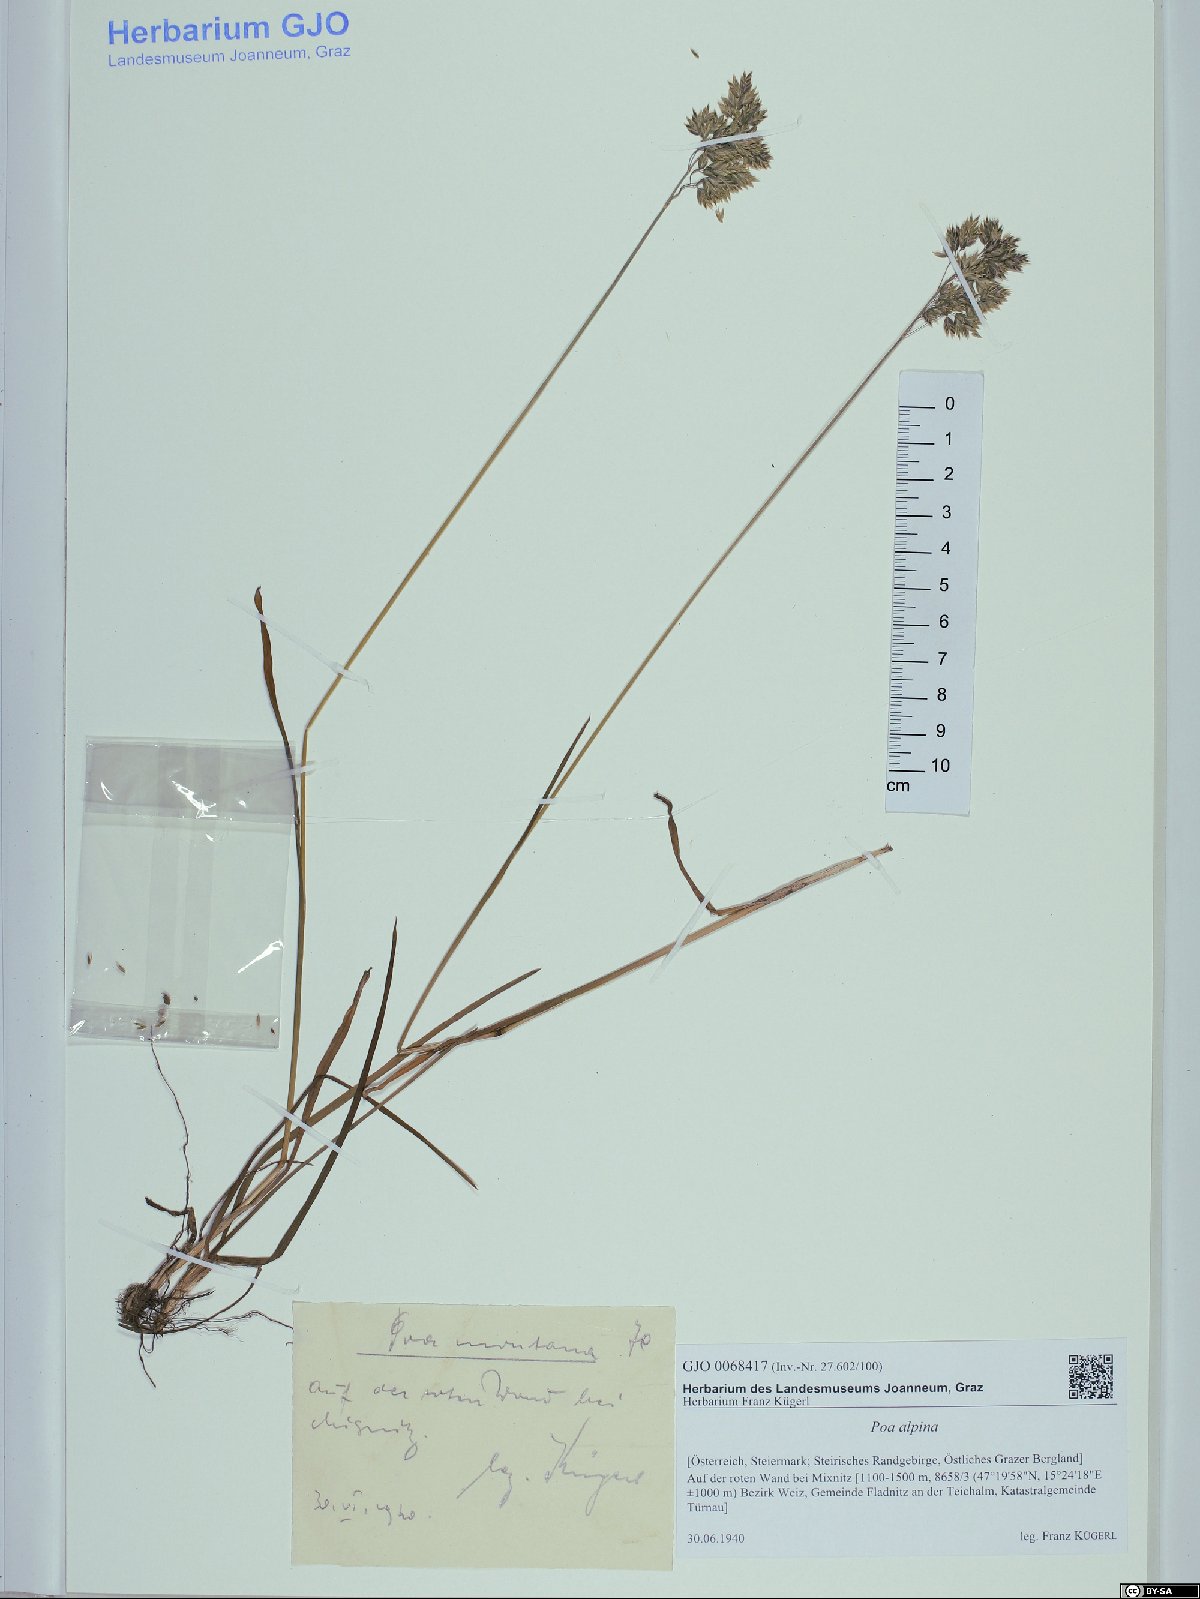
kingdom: Plantae
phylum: Tracheophyta
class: Liliopsida
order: Poales
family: Poaceae
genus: Poa
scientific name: Poa alpina
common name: Alpine bluegrass
